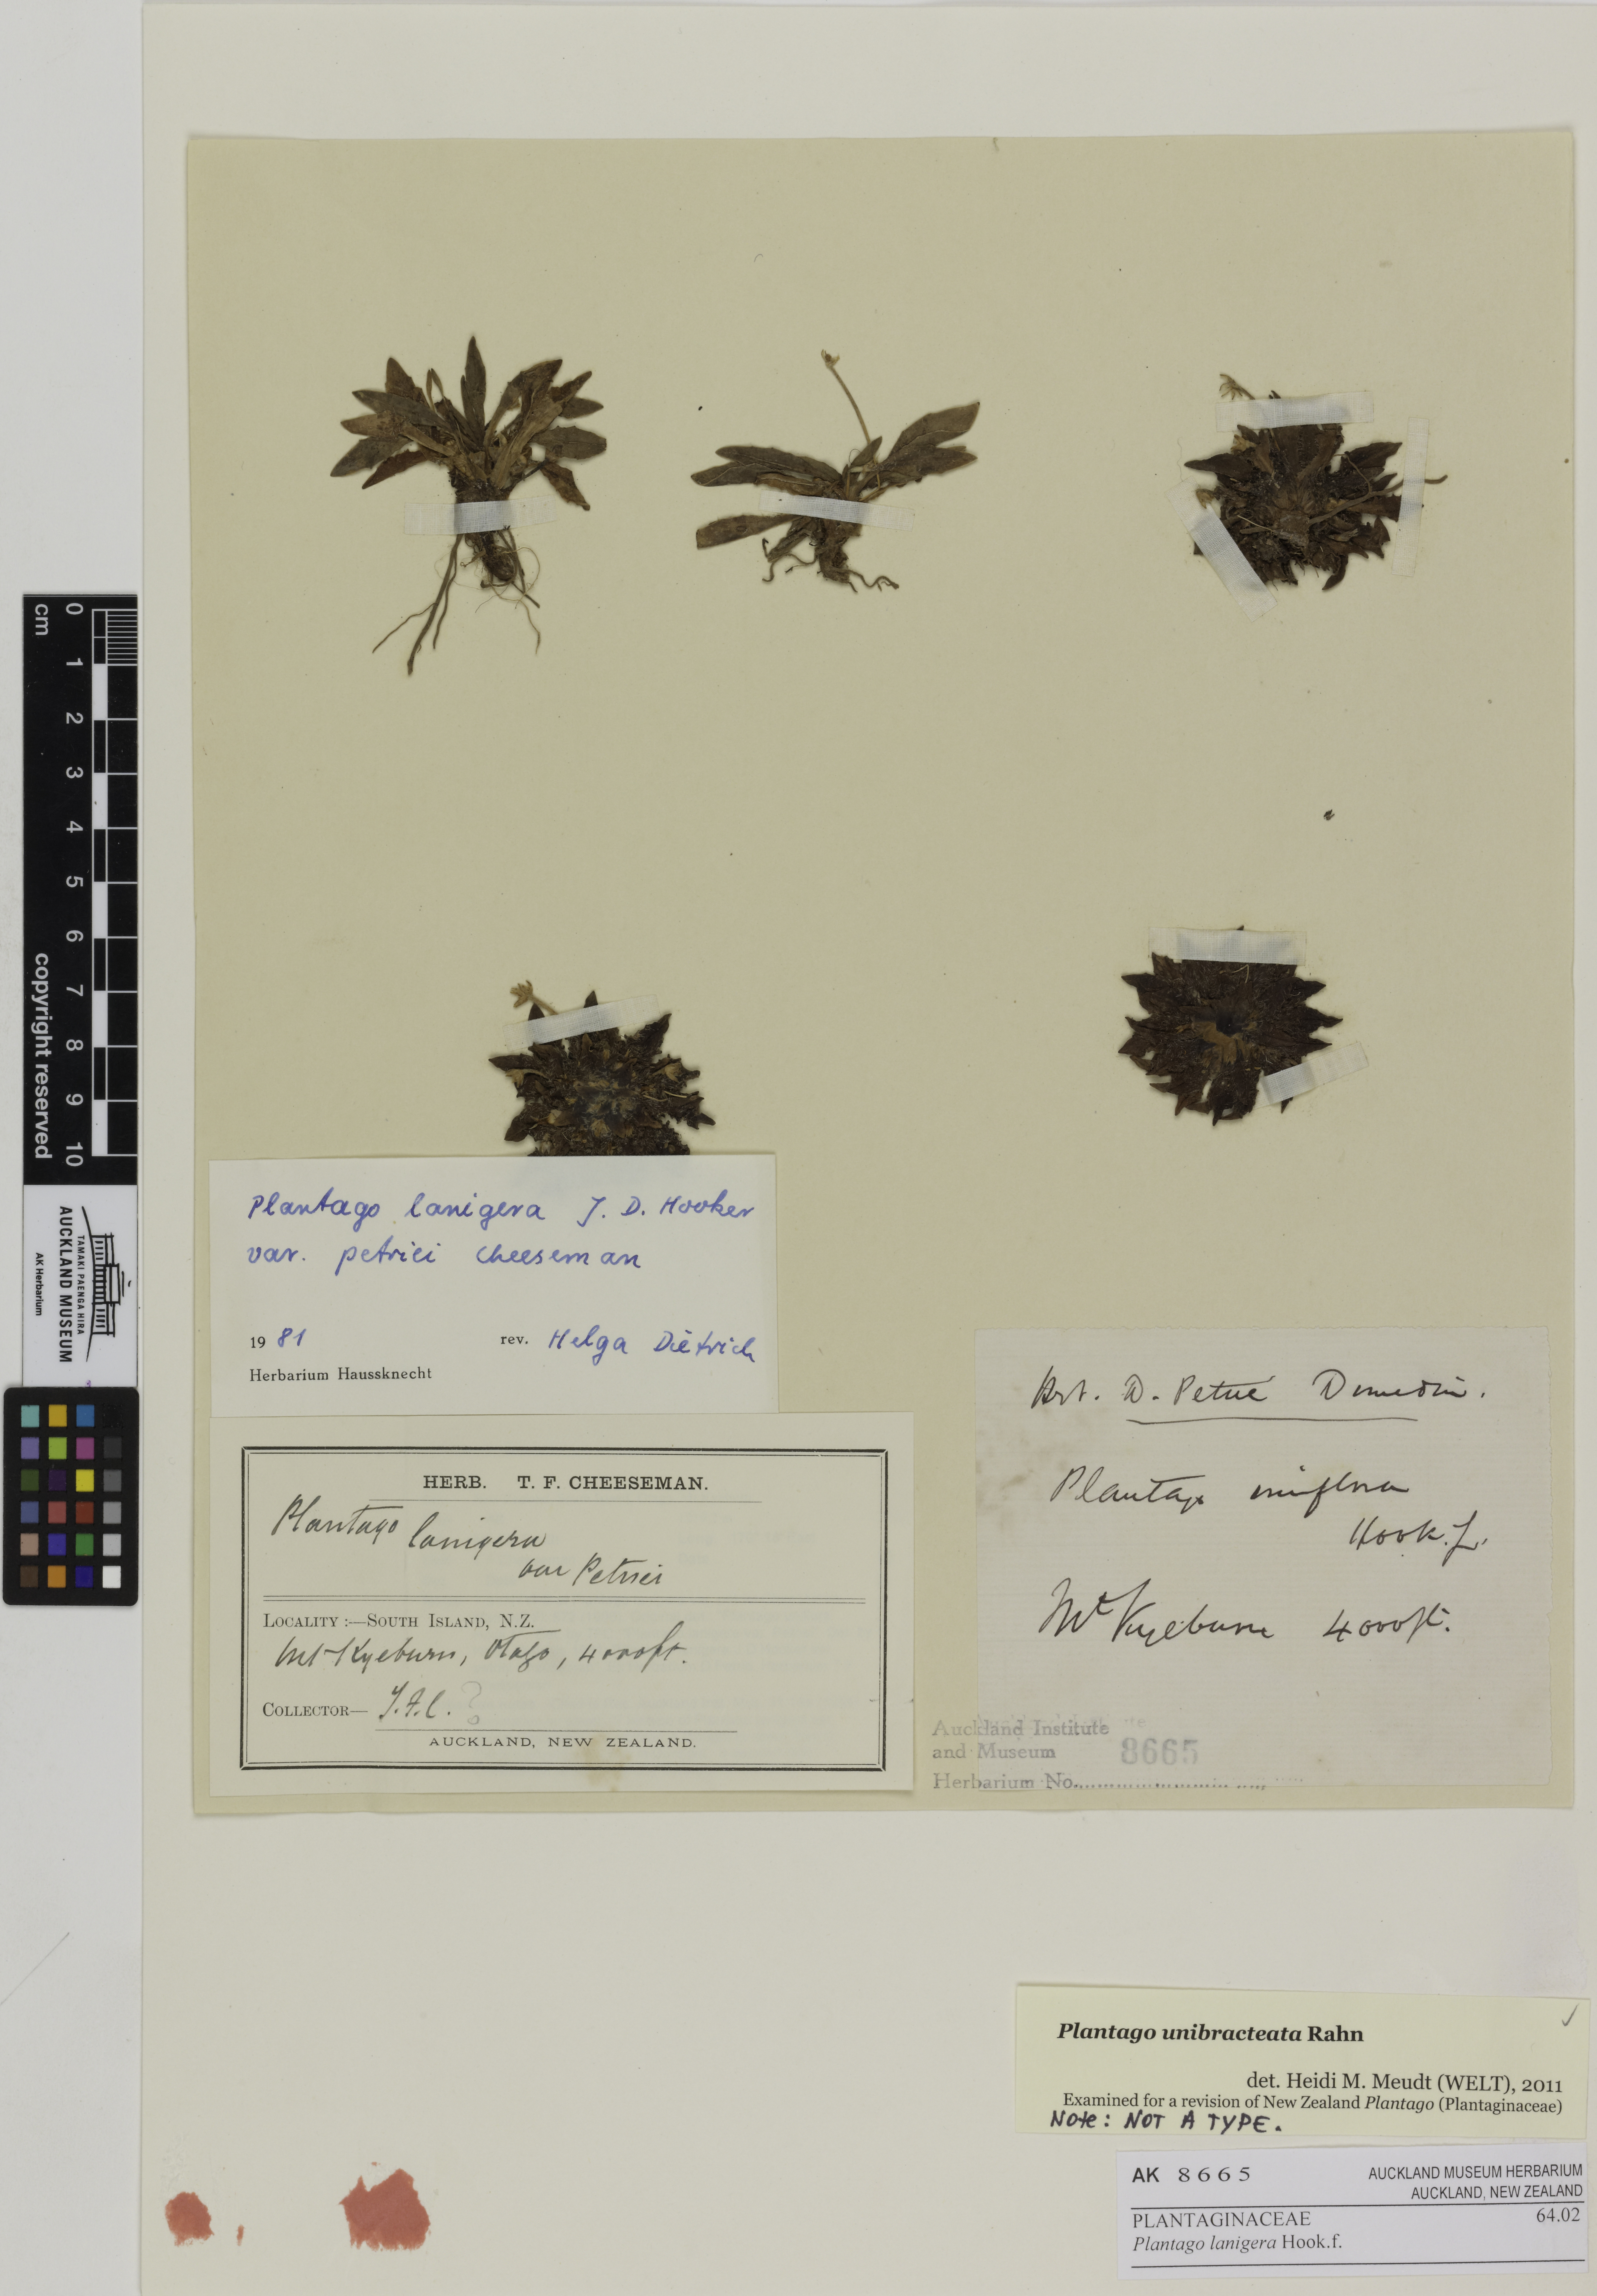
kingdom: Plantae
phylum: Tracheophyta
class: Magnoliopsida
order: Lamiales
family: Plantaginaceae
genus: Plantago
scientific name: Plantago unibracteata
